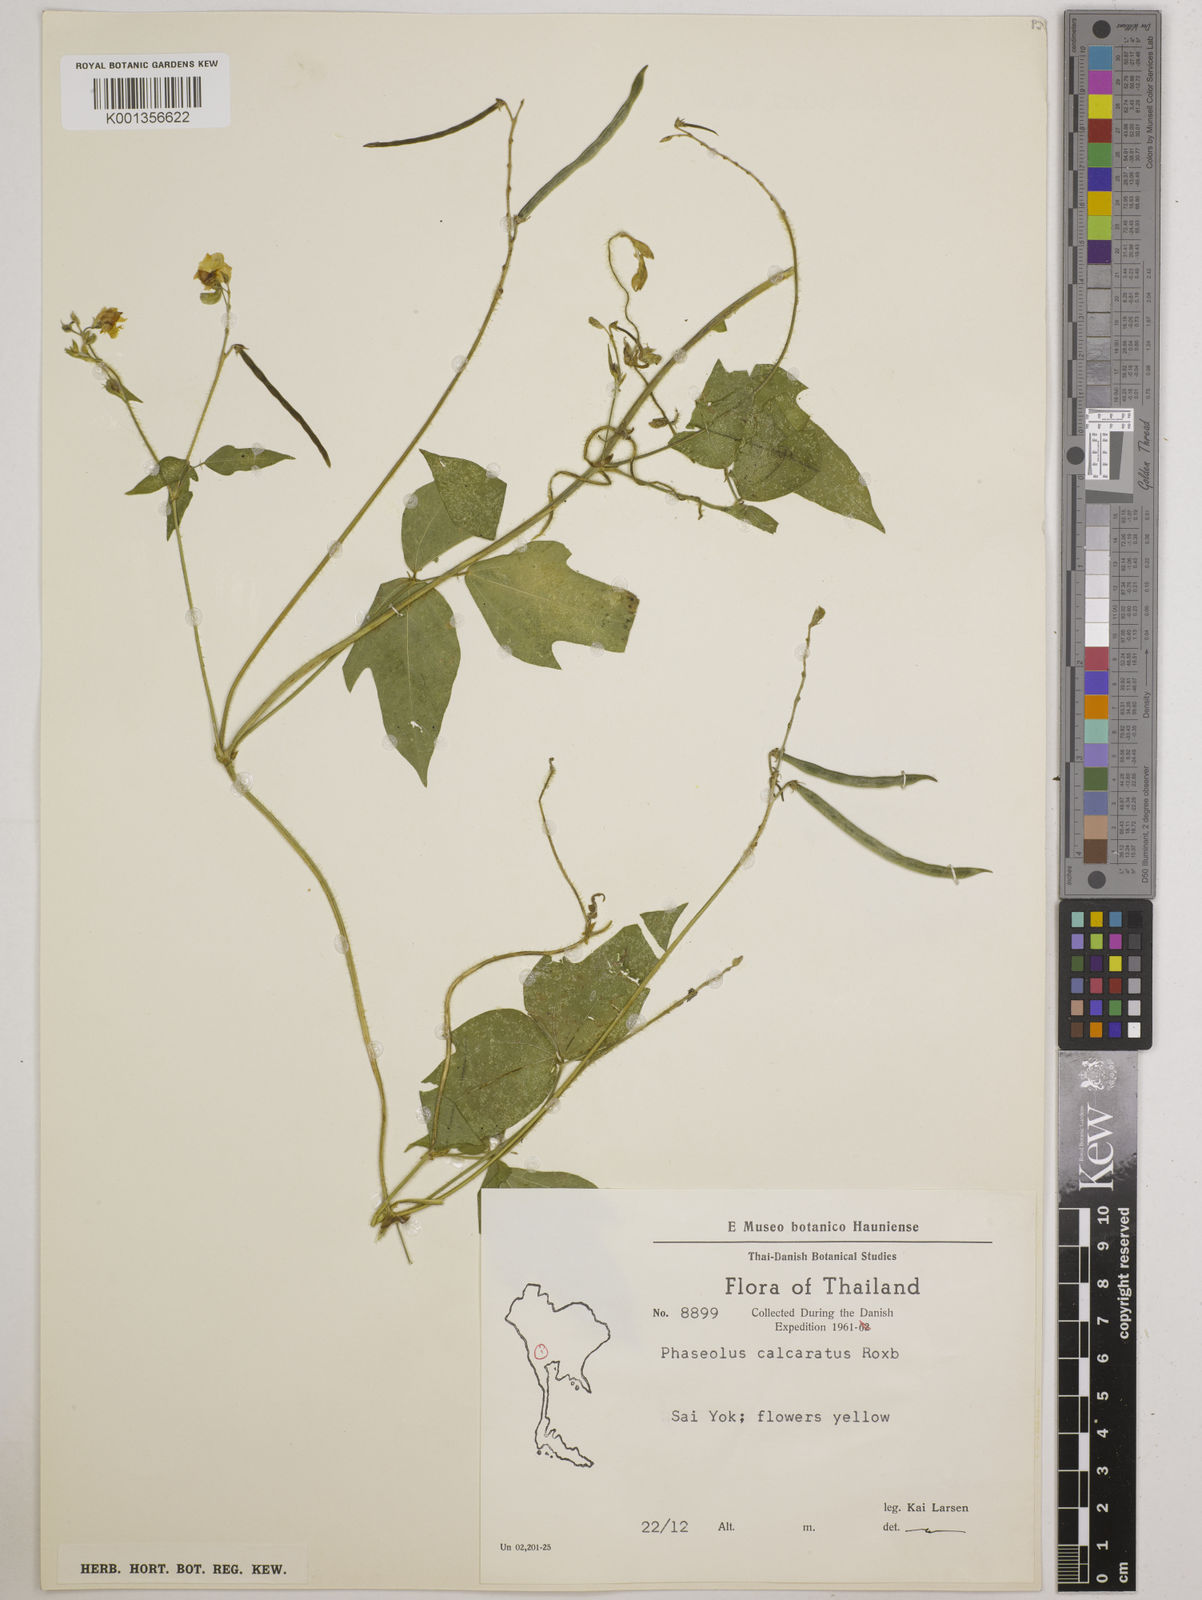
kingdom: Plantae
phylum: Tracheophyta
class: Magnoliopsida
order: Fabales
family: Fabaceae
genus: Vigna
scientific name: Vigna gracilicaulis
